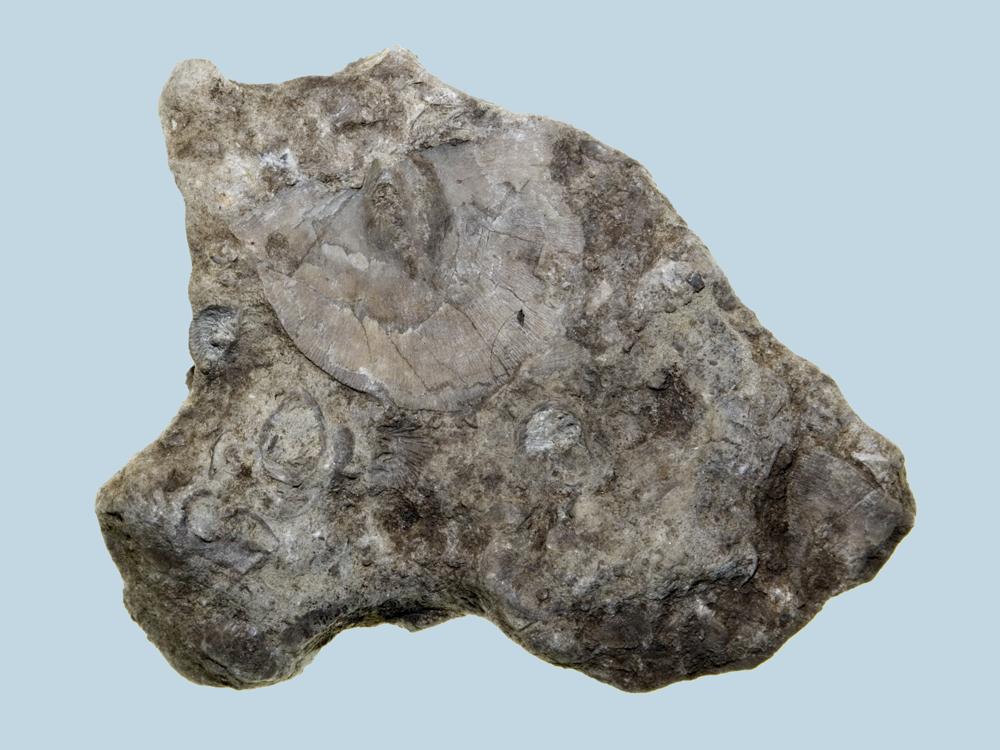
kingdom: Animalia
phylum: Brachiopoda
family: Strophomenidae
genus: Strophomena
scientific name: Strophomena
